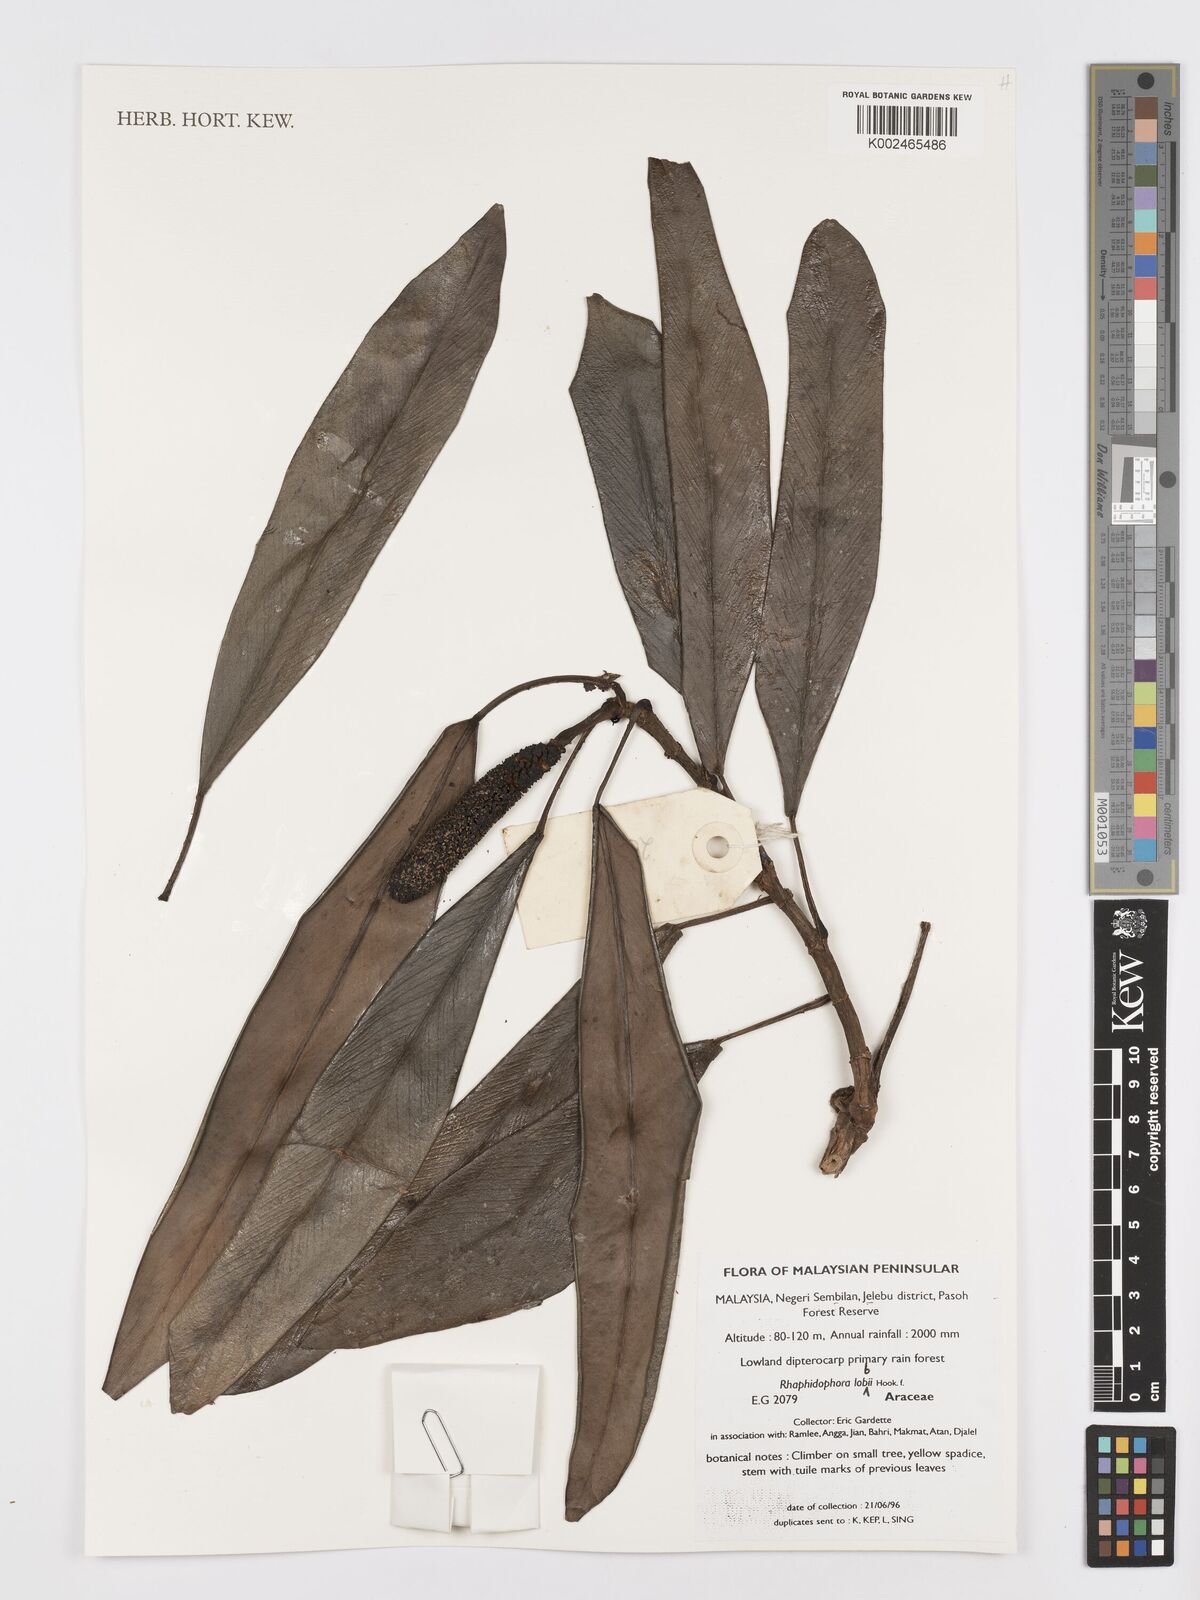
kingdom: Plantae
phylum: Tracheophyta
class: Liliopsida
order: Alismatales
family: Araceae
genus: Rhaphidophora
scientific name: Rhaphidophora lobbii
